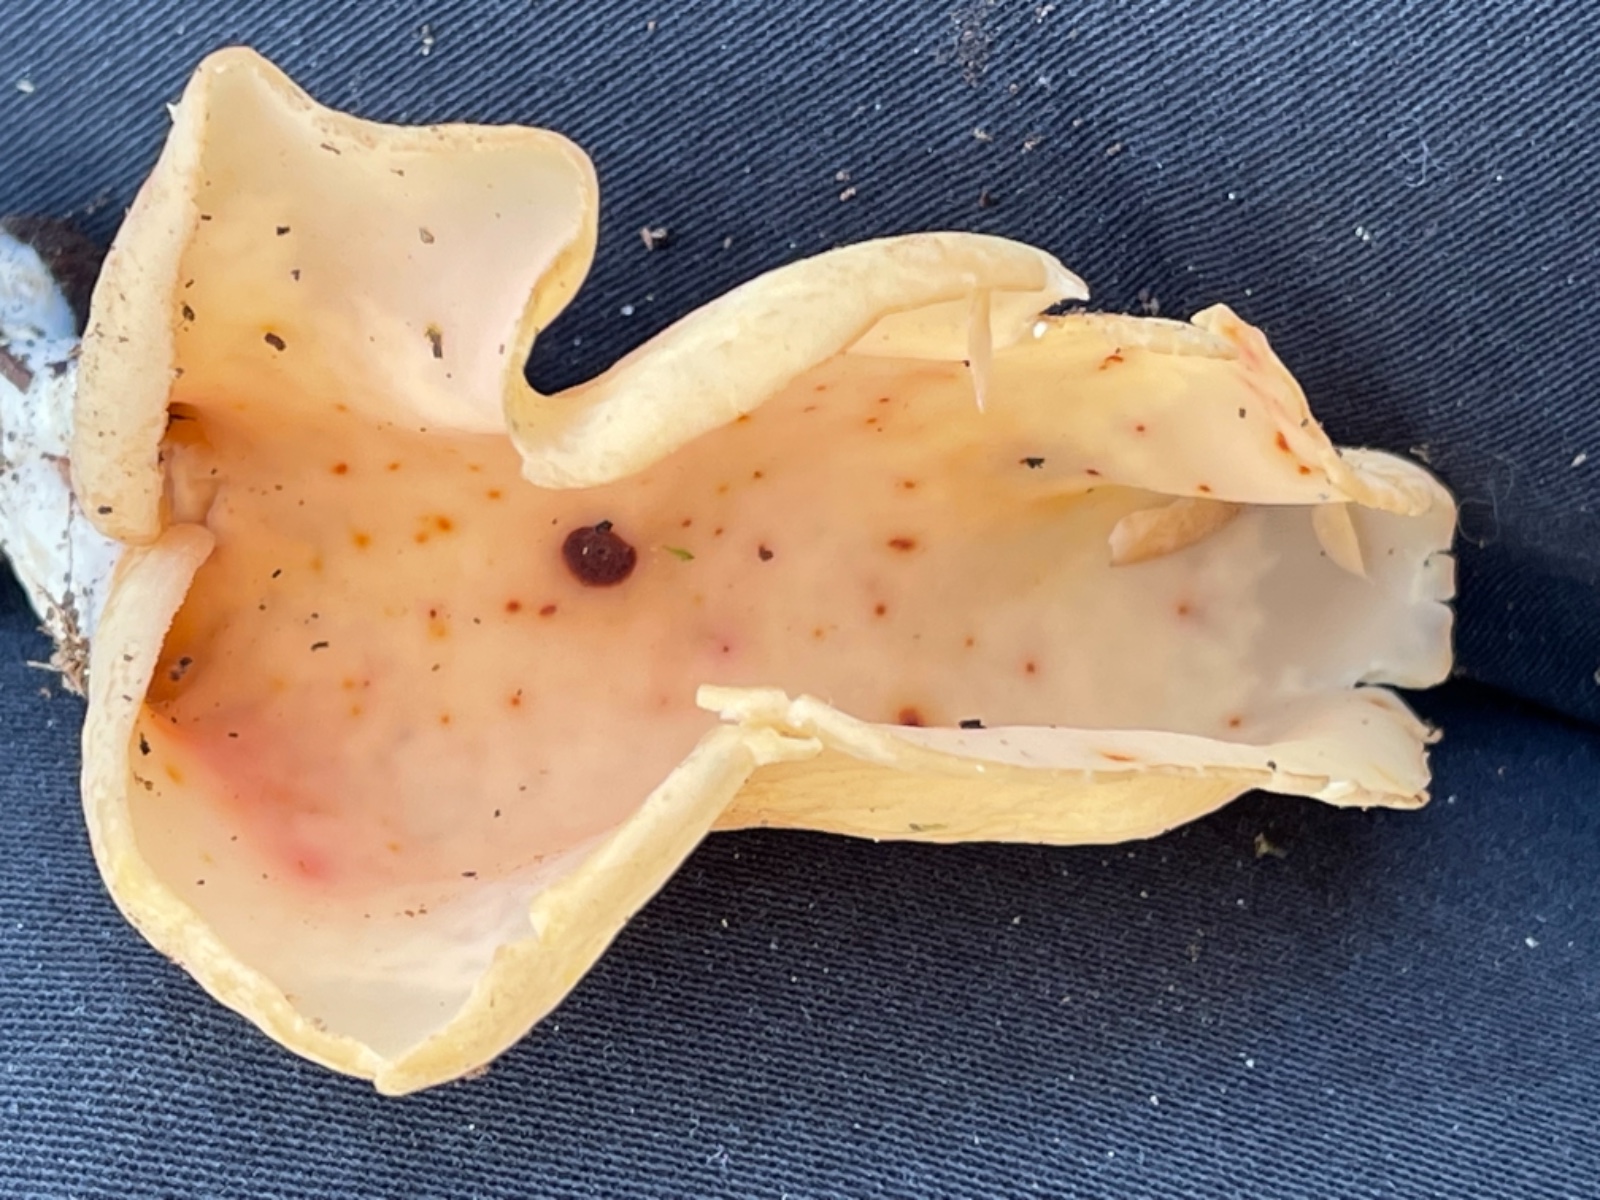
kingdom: Fungi
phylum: Ascomycota
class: Pezizomycetes
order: Pezizales
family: Otideaceae
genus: Otidea
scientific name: Otidea onotica
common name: æsel-ørebæger
